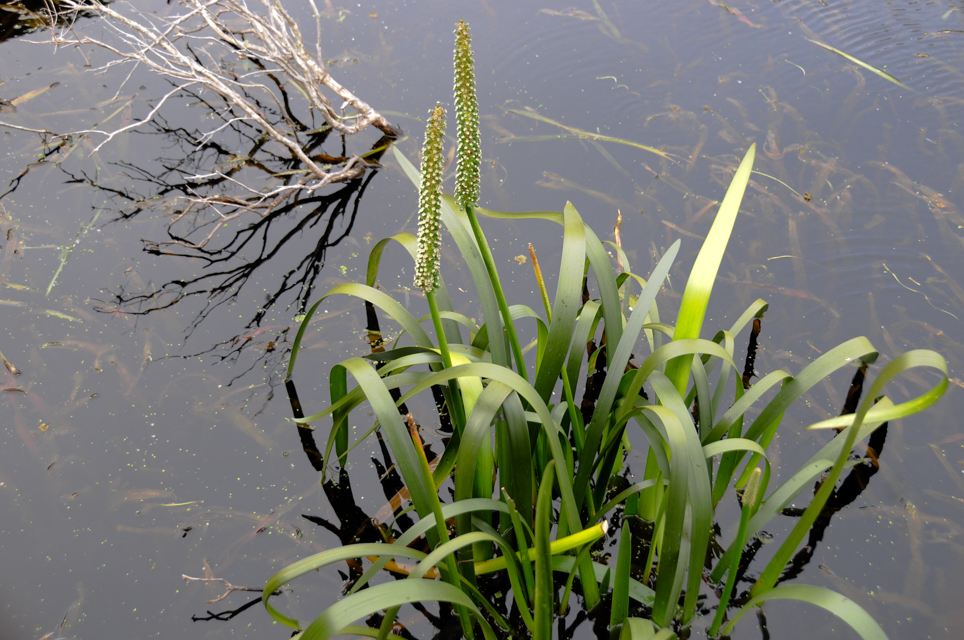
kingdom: Plantae
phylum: Tracheophyta
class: Liliopsida
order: Alismatales
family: Juncaginaceae
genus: Cycnogeton
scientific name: Cycnogeton procerum
